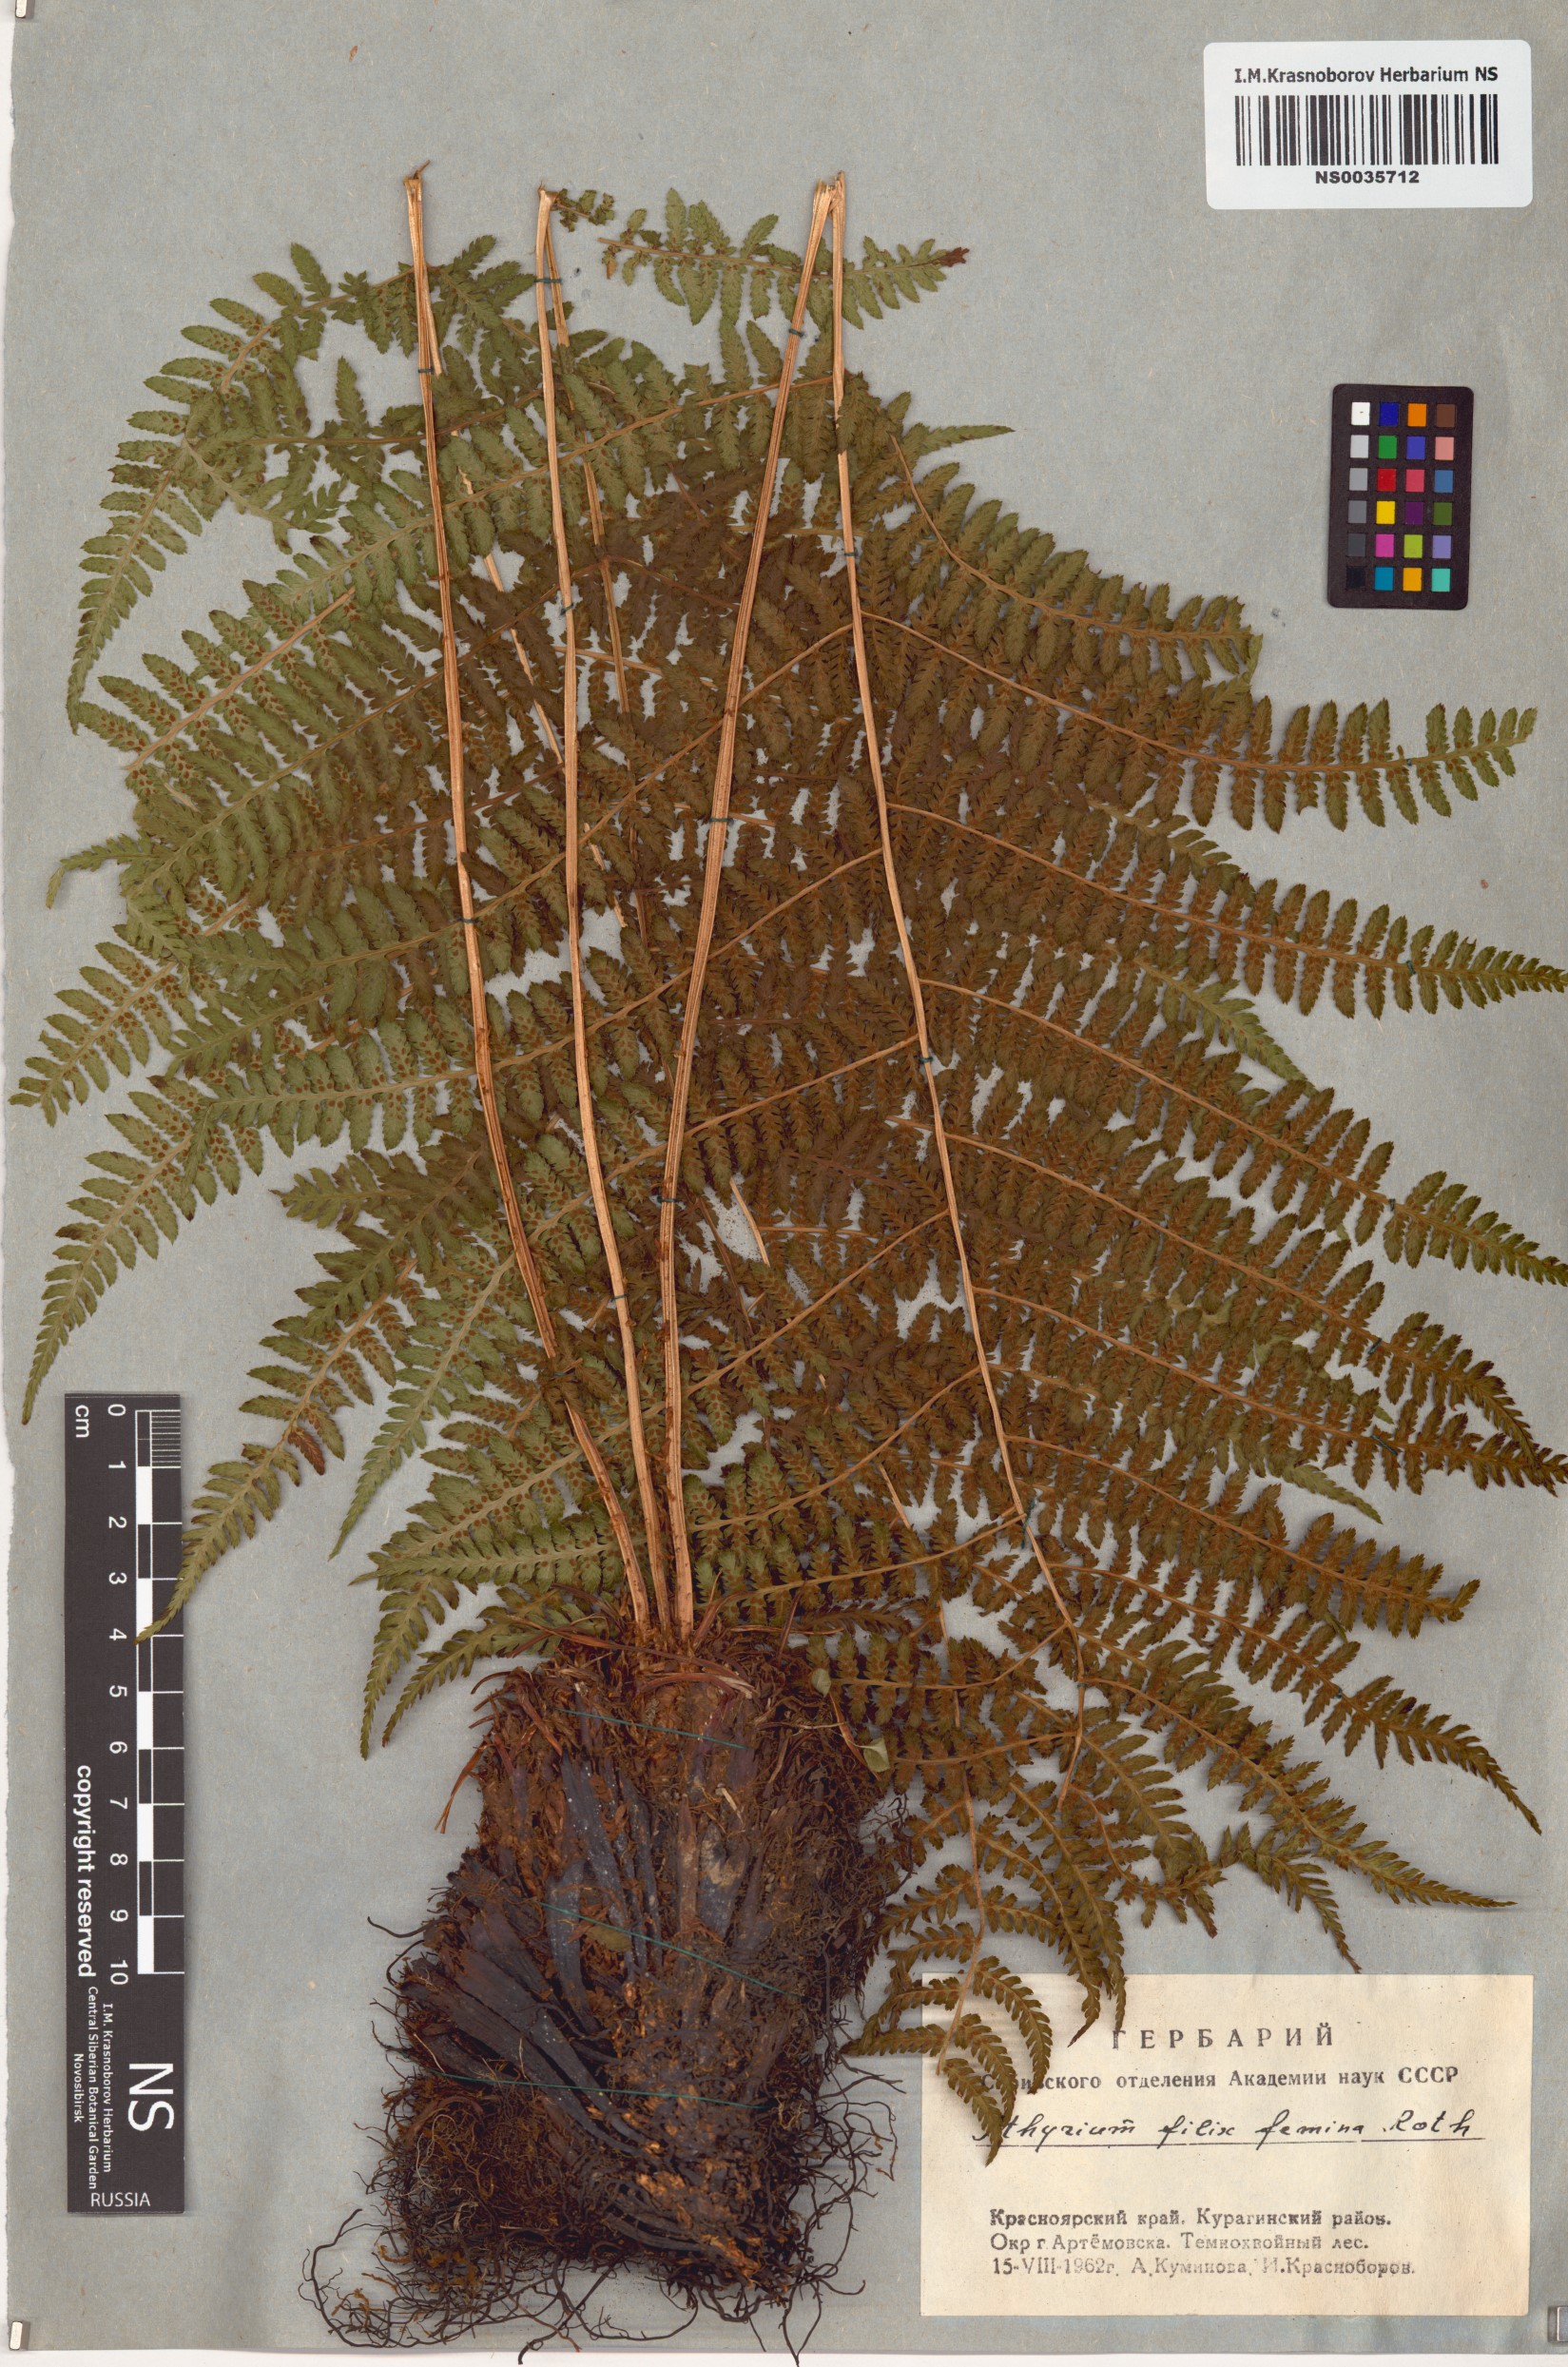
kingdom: Plantae
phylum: Tracheophyta
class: Polypodiopsida
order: Polypodiales
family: Athyriaceae
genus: Athyrium
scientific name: Athyrium filix-femina
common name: Lady fern
